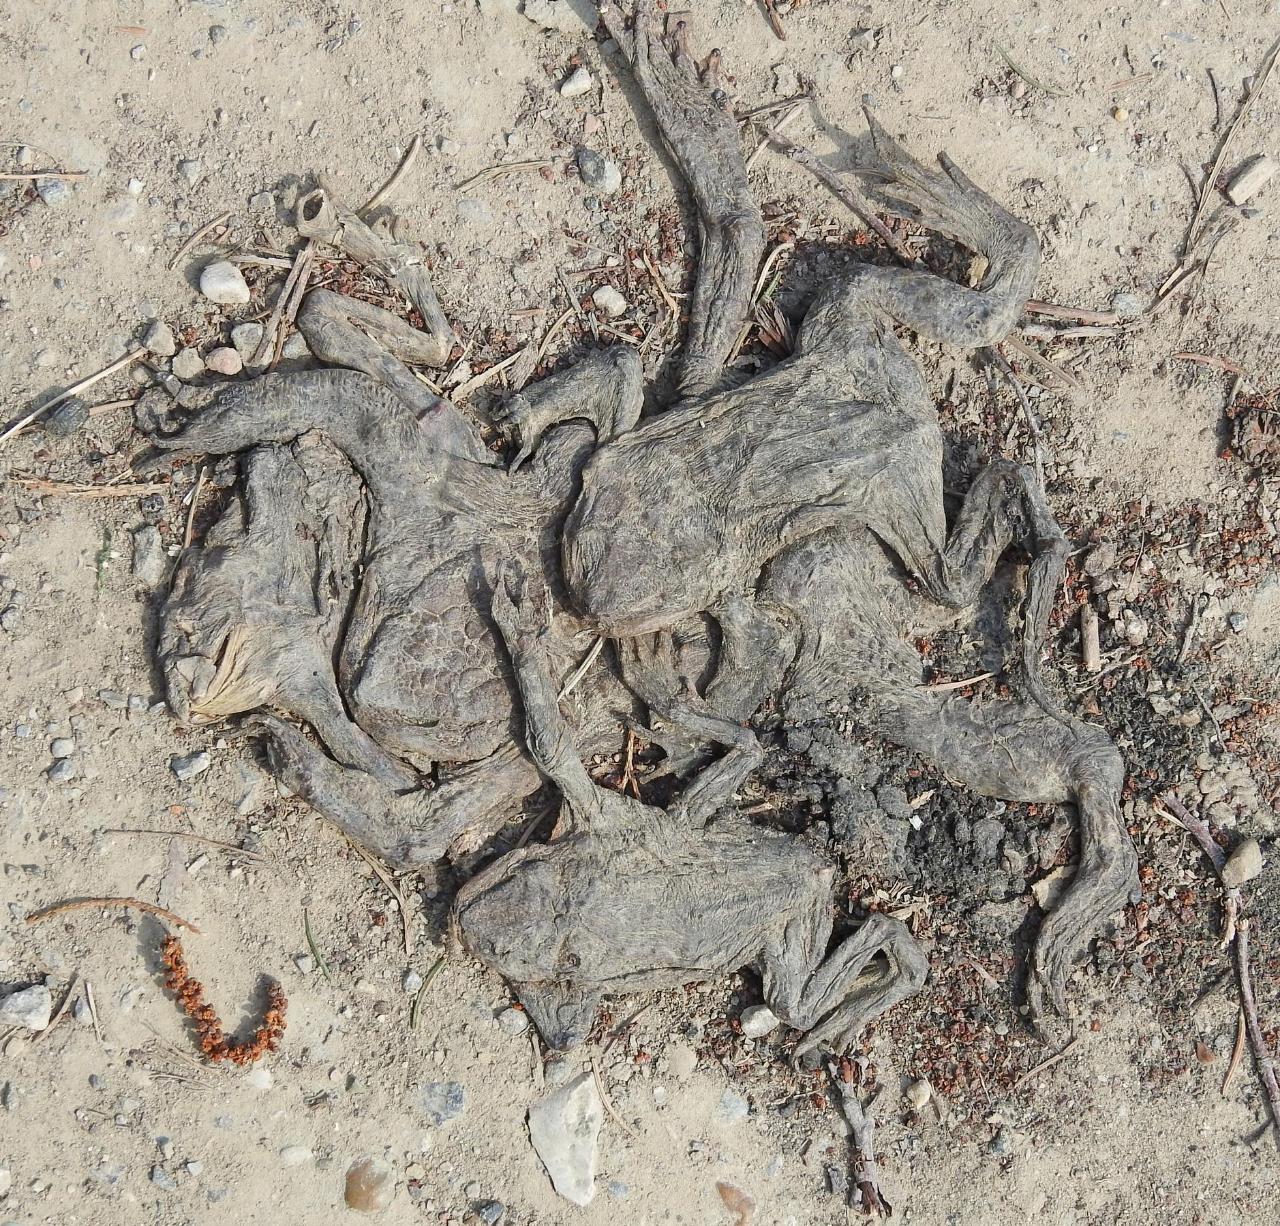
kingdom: Animalia
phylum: Chordata
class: Amphibia
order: Anura
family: Bufonidae
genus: Bufo
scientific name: Bufo bufo
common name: Common toad
